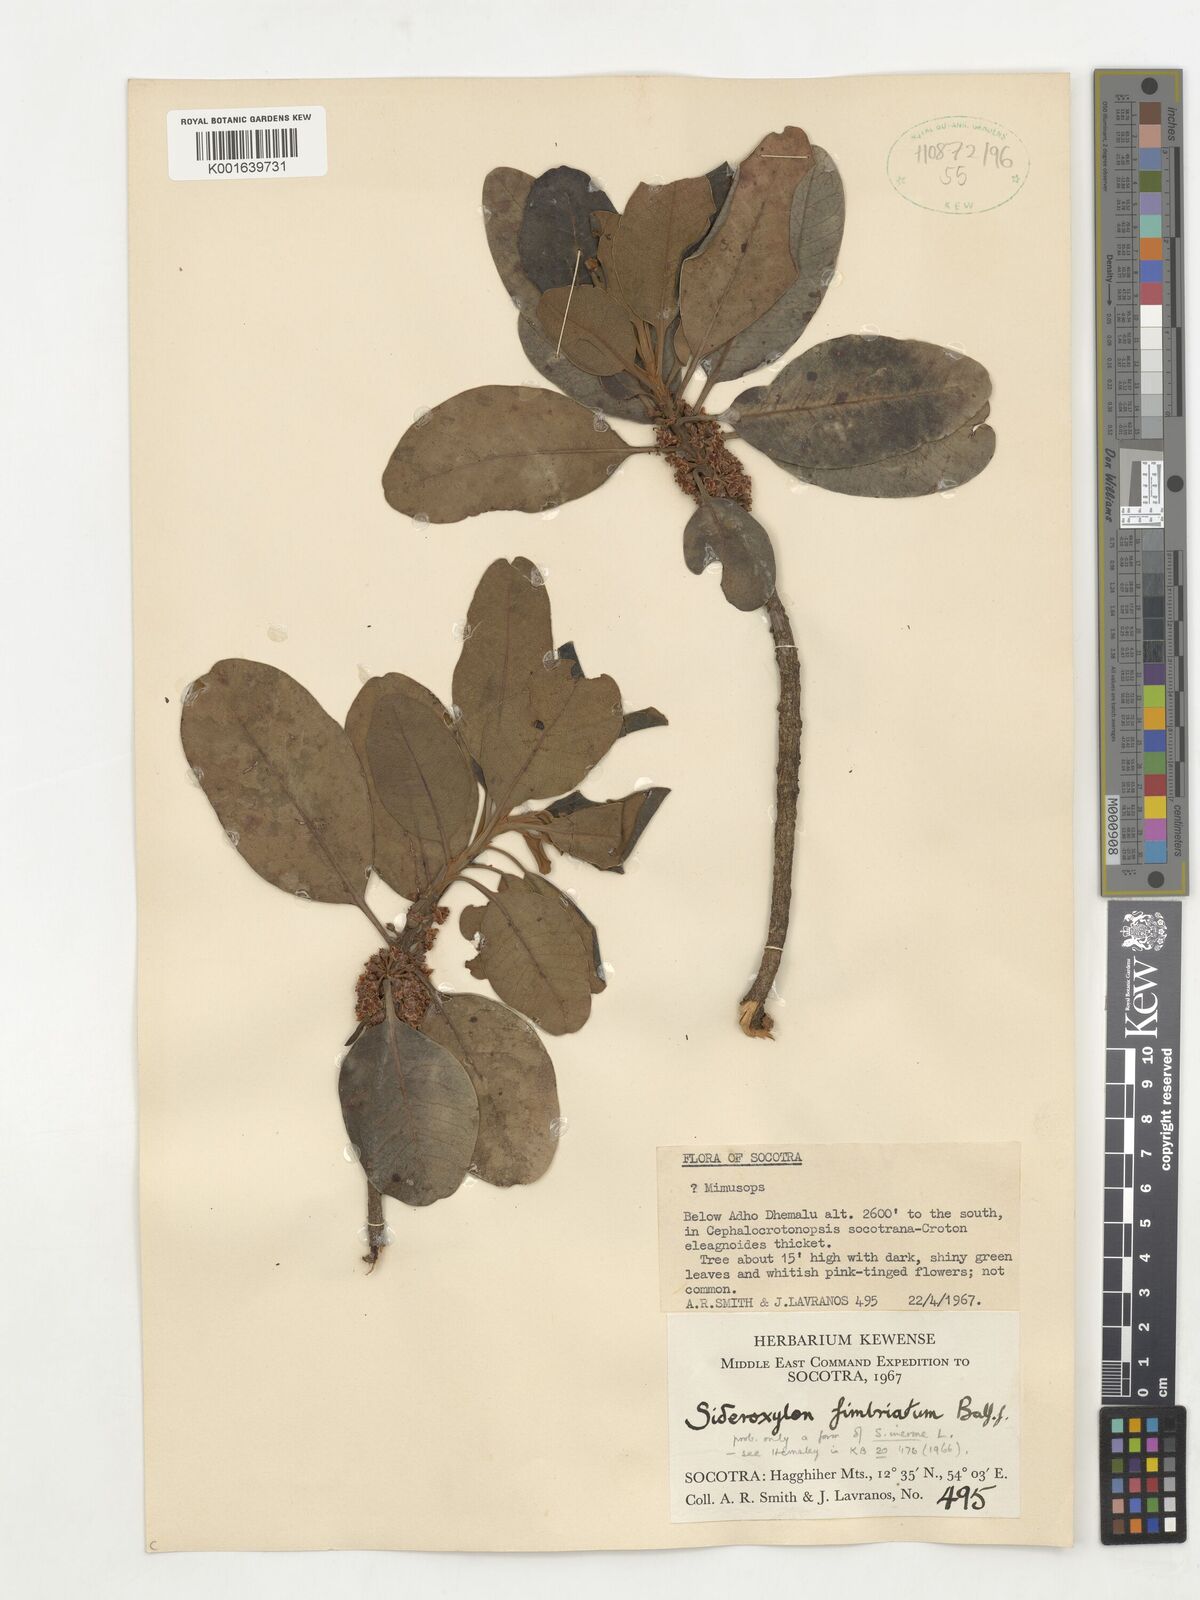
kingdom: Plantae
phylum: Tracheophyta
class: Magnoliopsida
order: Ericales
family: Sapotaceae
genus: Sideroxylon
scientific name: Sideroxylon fimbriatum
